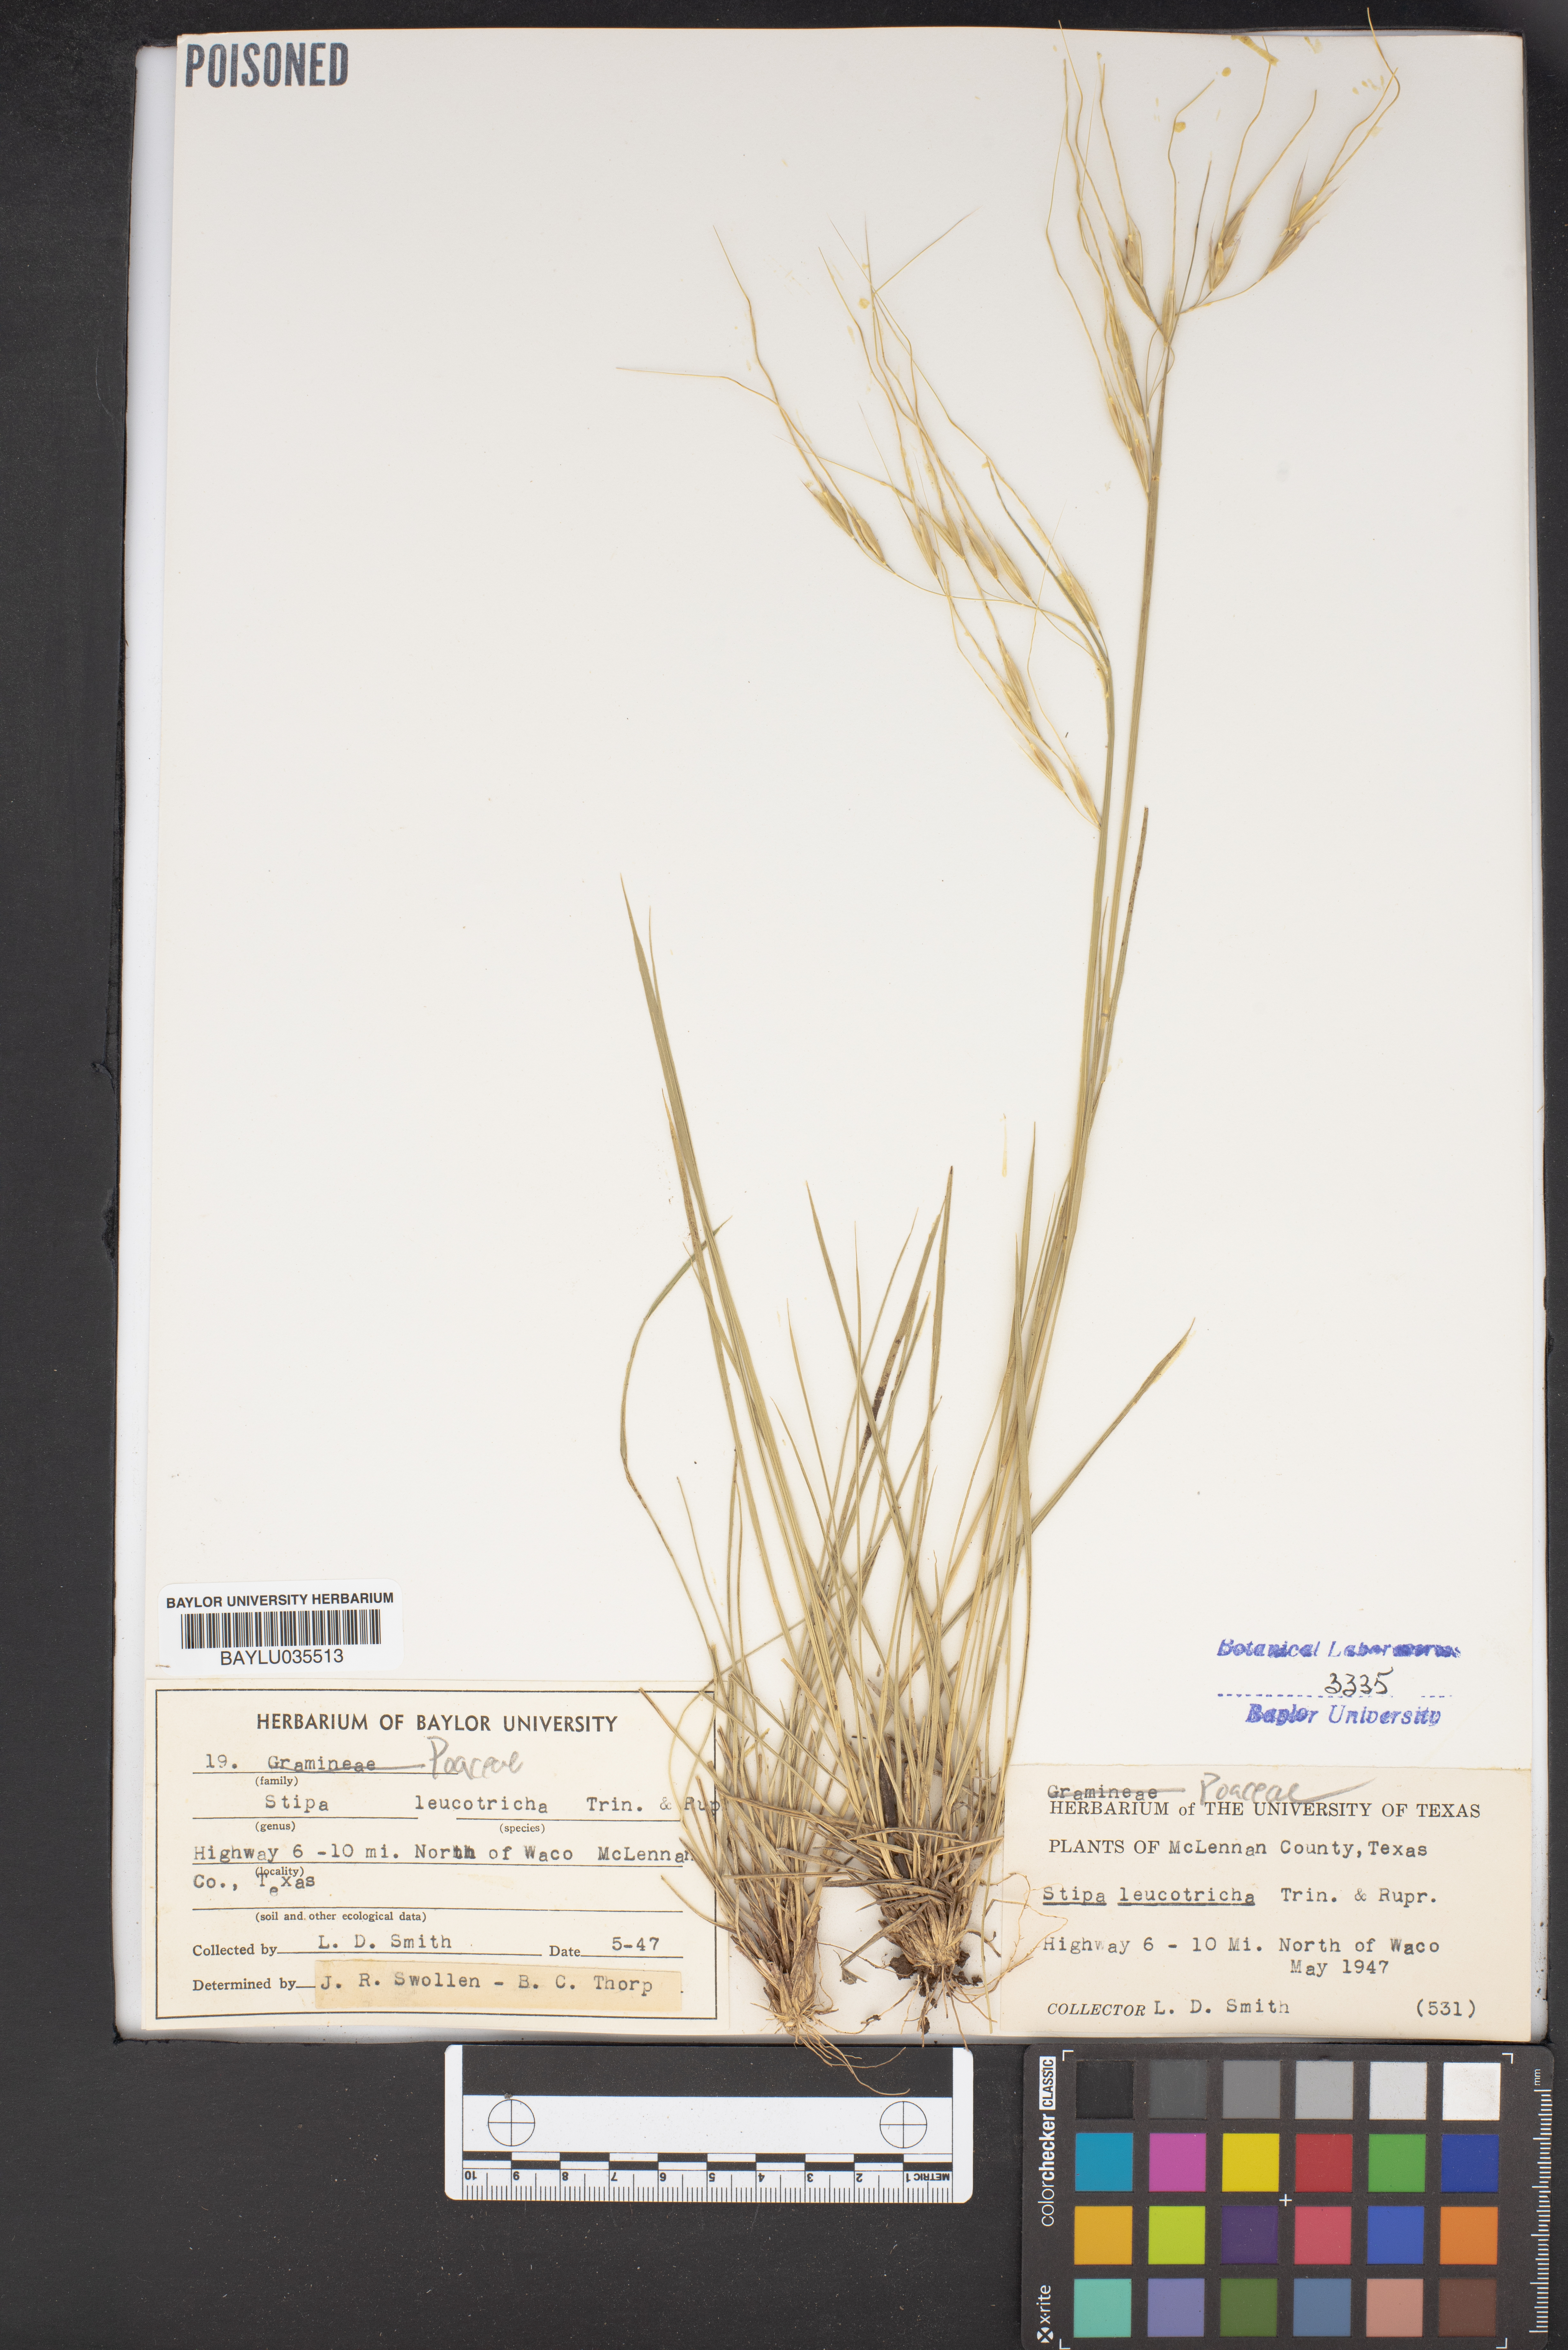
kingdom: Plantae
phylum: Tracheophyta
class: Liliopsida
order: Poales
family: Poaceae
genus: Nassella
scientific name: Nassella leucotricha
